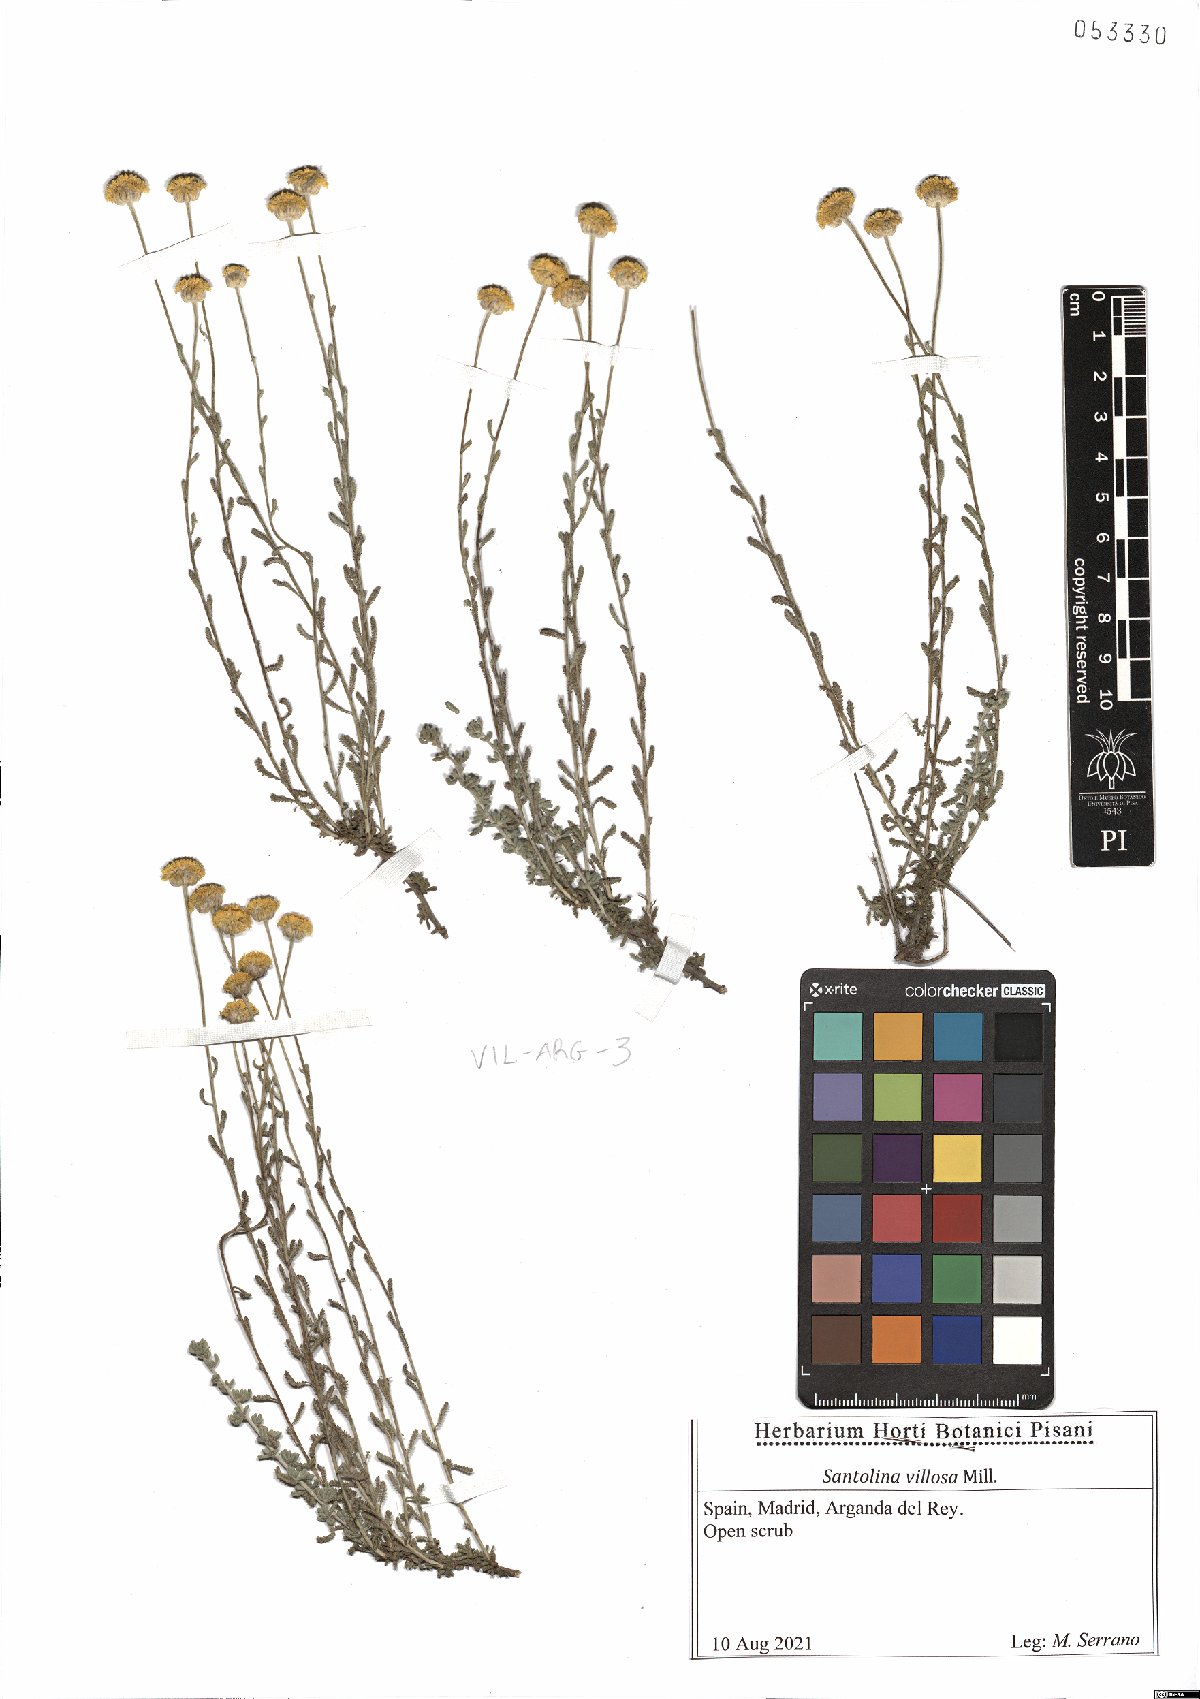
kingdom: Plantae
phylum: Tracheophyta
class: Magnoliopsida
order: Asterales
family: Asteraceae
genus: Santolina
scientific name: Santolina chamaecyparissus
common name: Lavender-cotton
